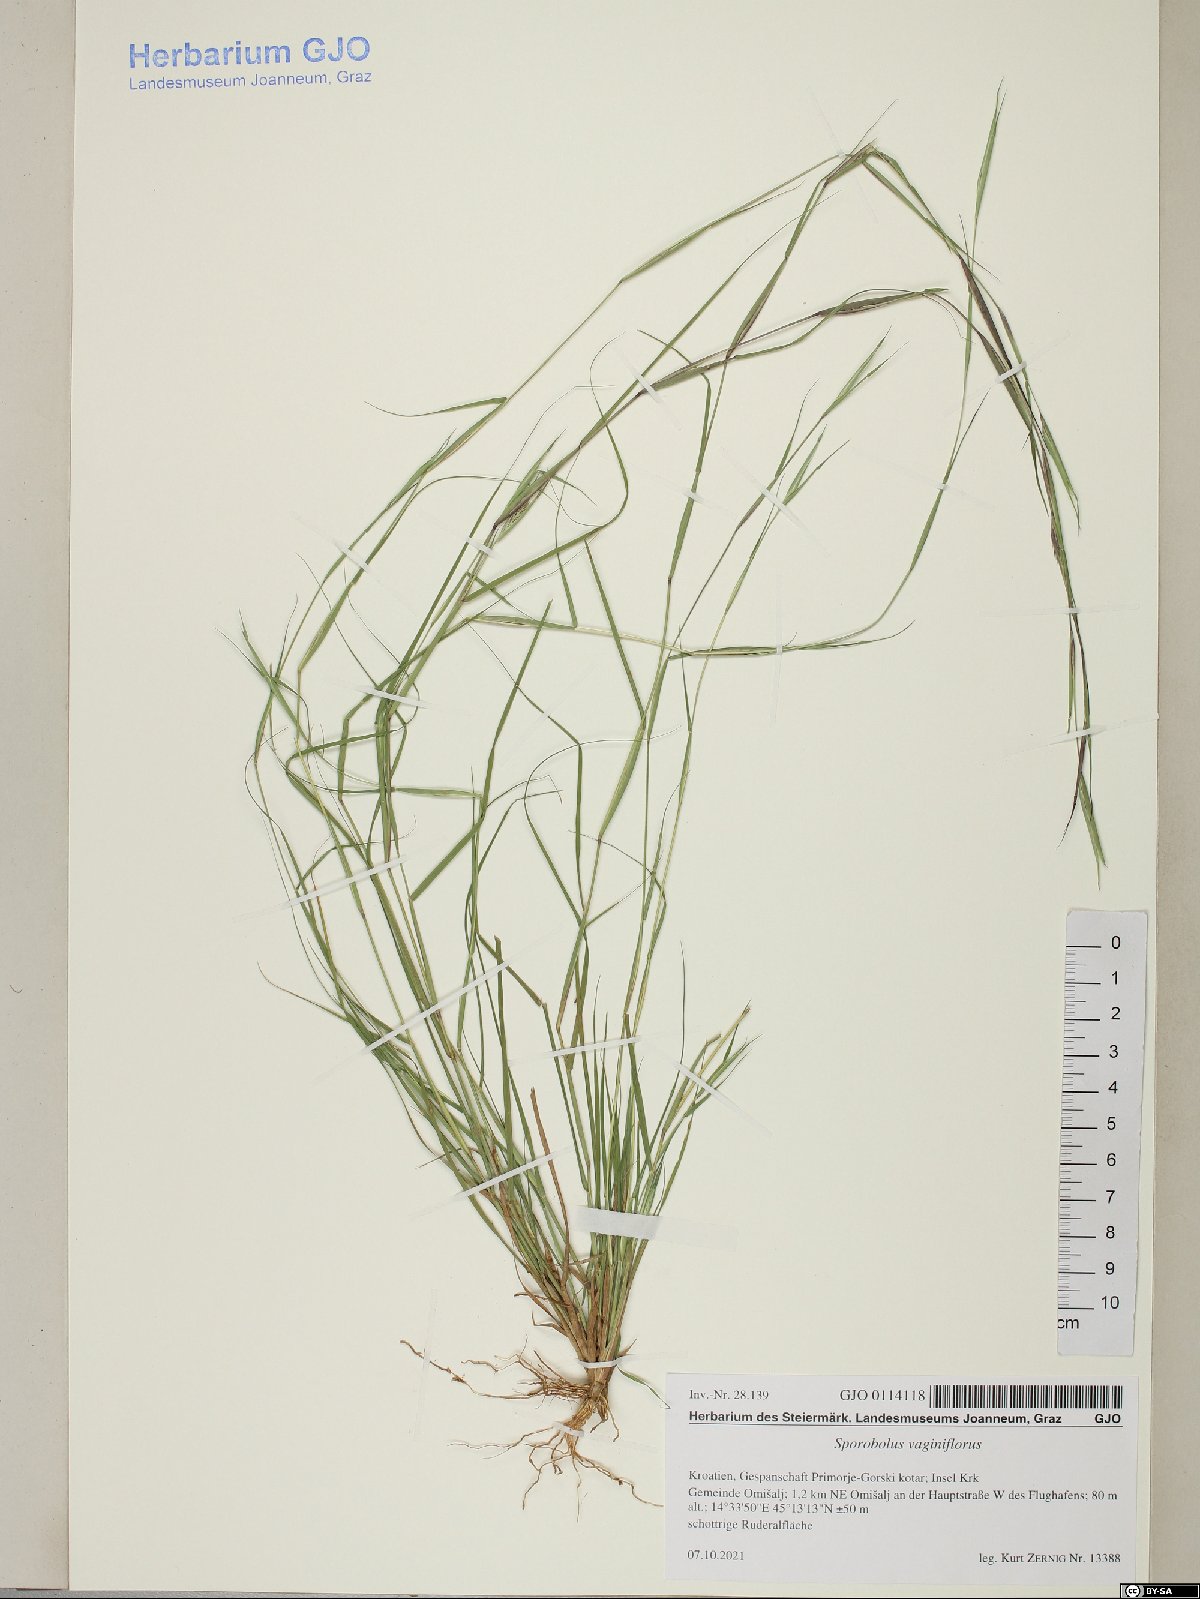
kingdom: Plantae
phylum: Tracheophyta
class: Liliopsida
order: Poales
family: Poaceae
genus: Sporobolus
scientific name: Sporobolus vaginiflorus
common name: Poverty dropseed
